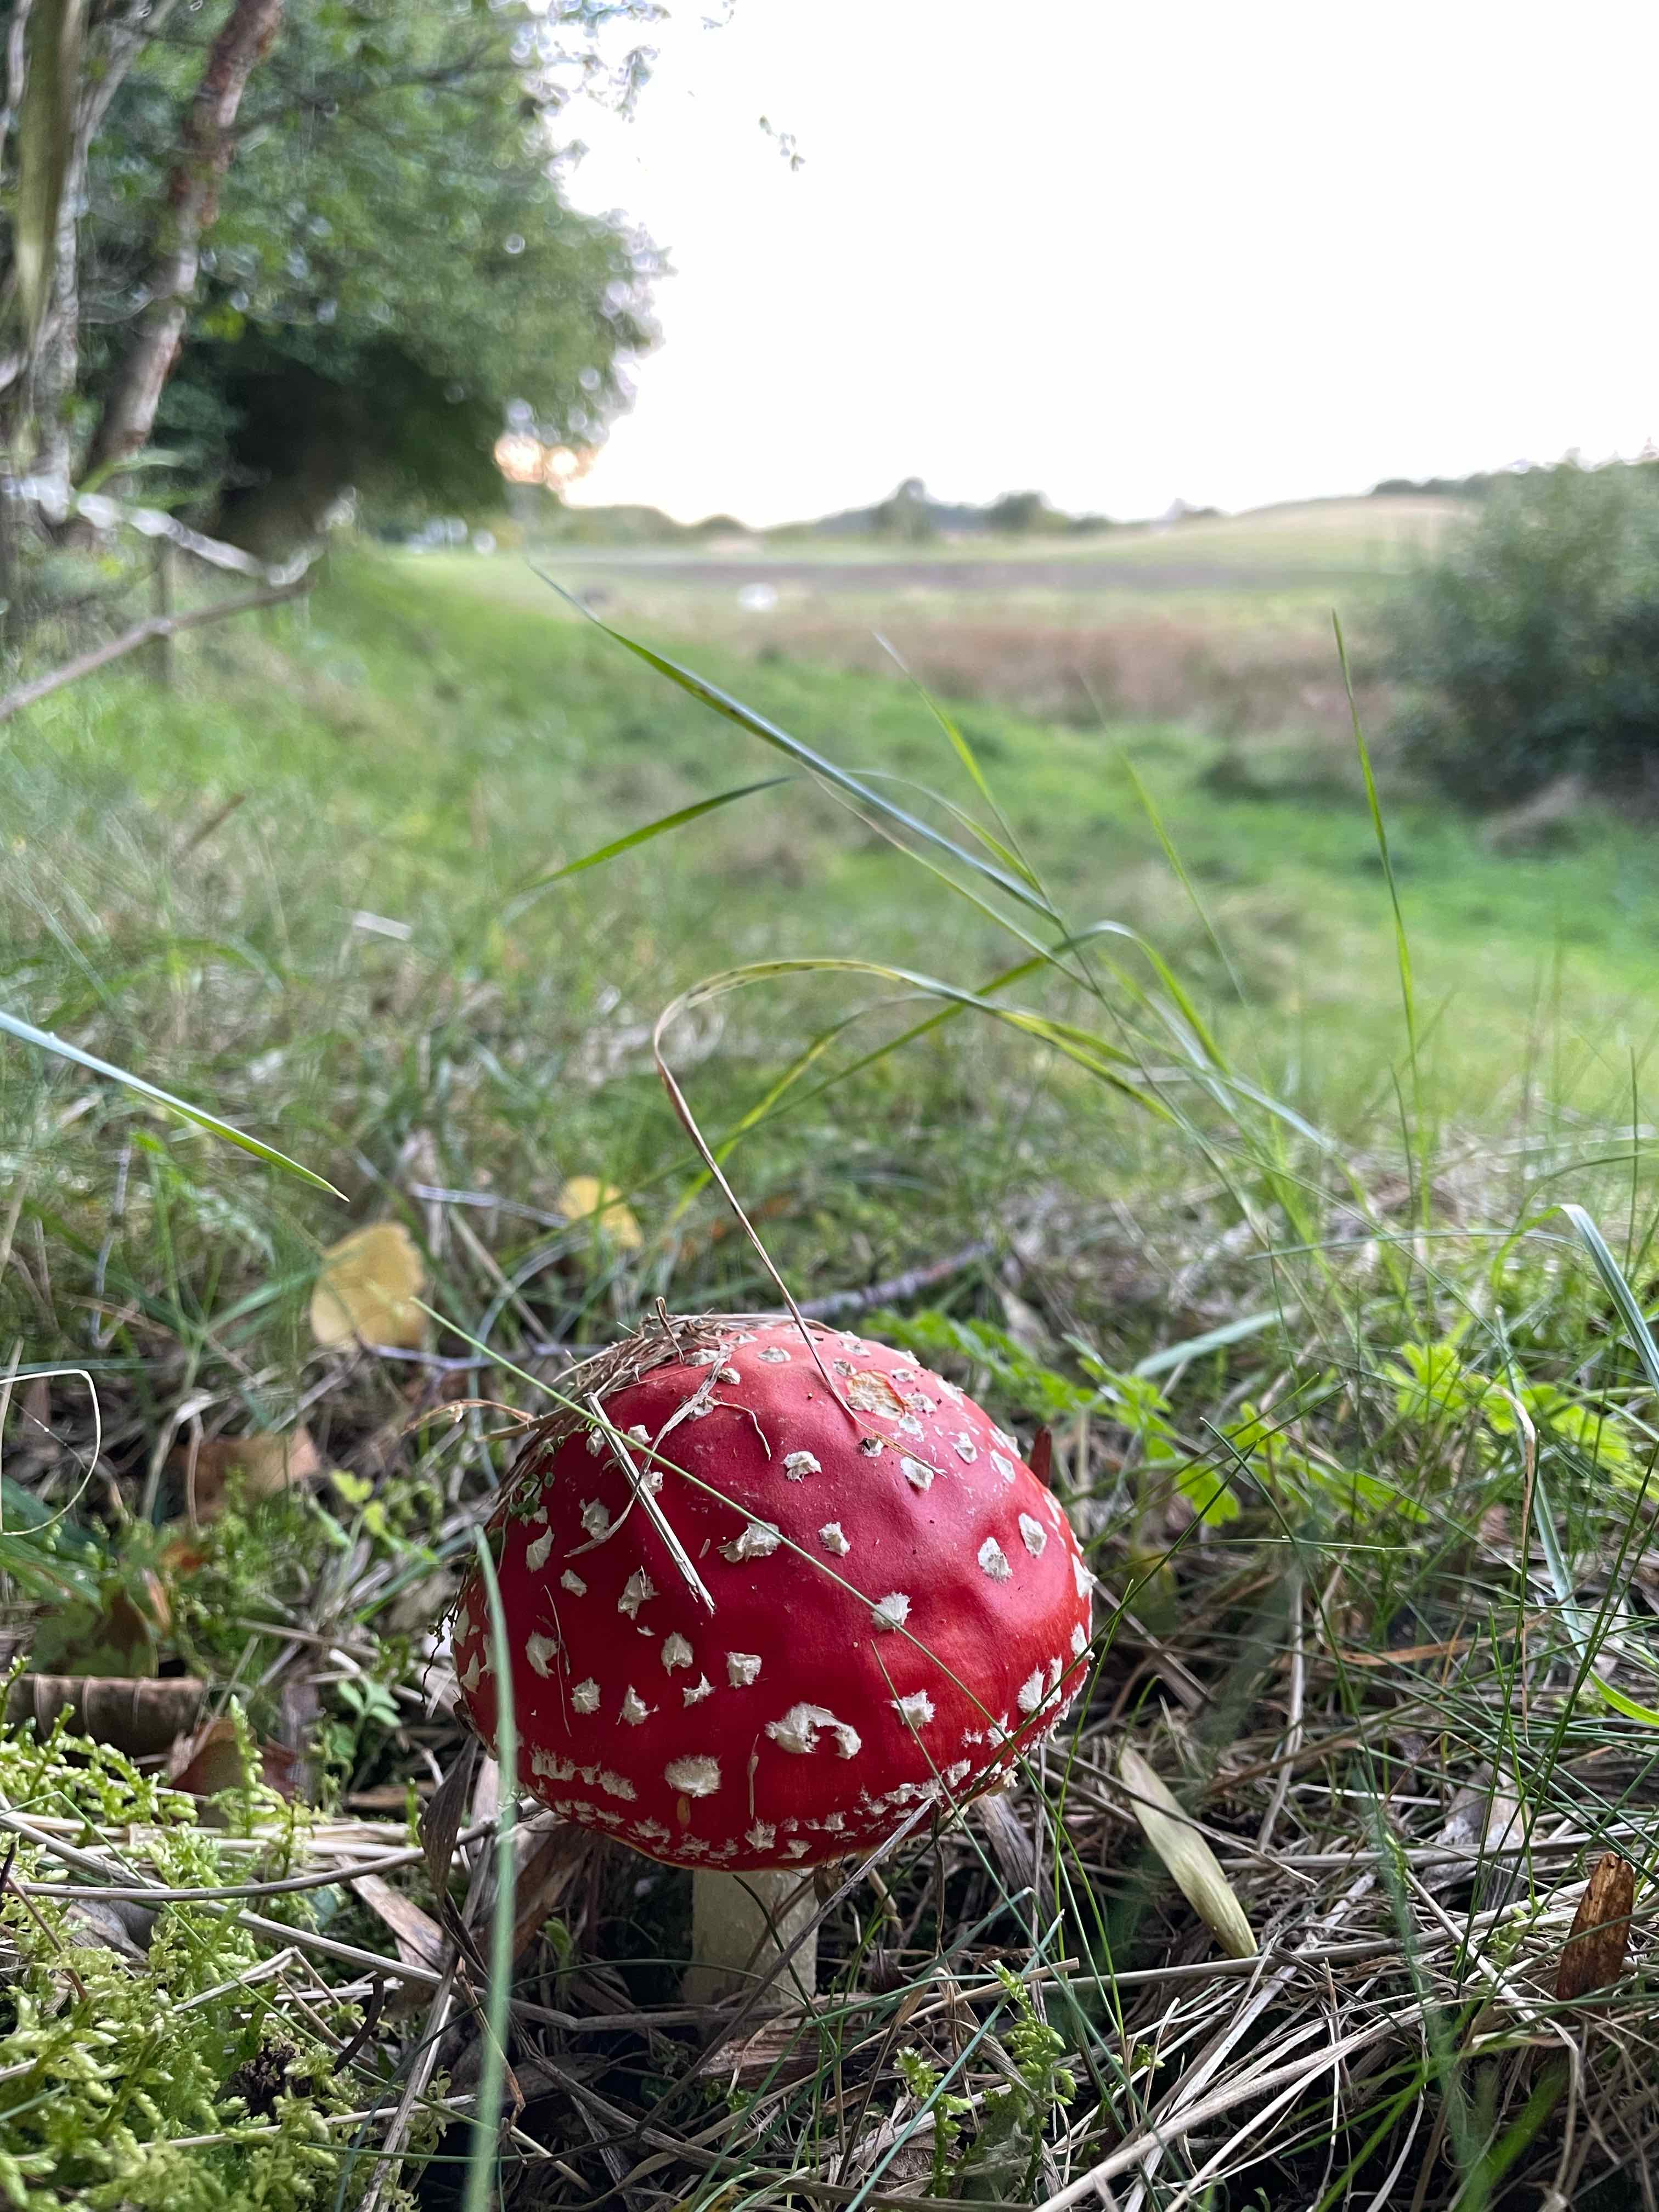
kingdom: Fungi
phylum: Basidiomycota
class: Agaricomycetes
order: Agaricales
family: Amanitaceae
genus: Amanita
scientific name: Amanita muscaria
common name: rød fluesvamp
